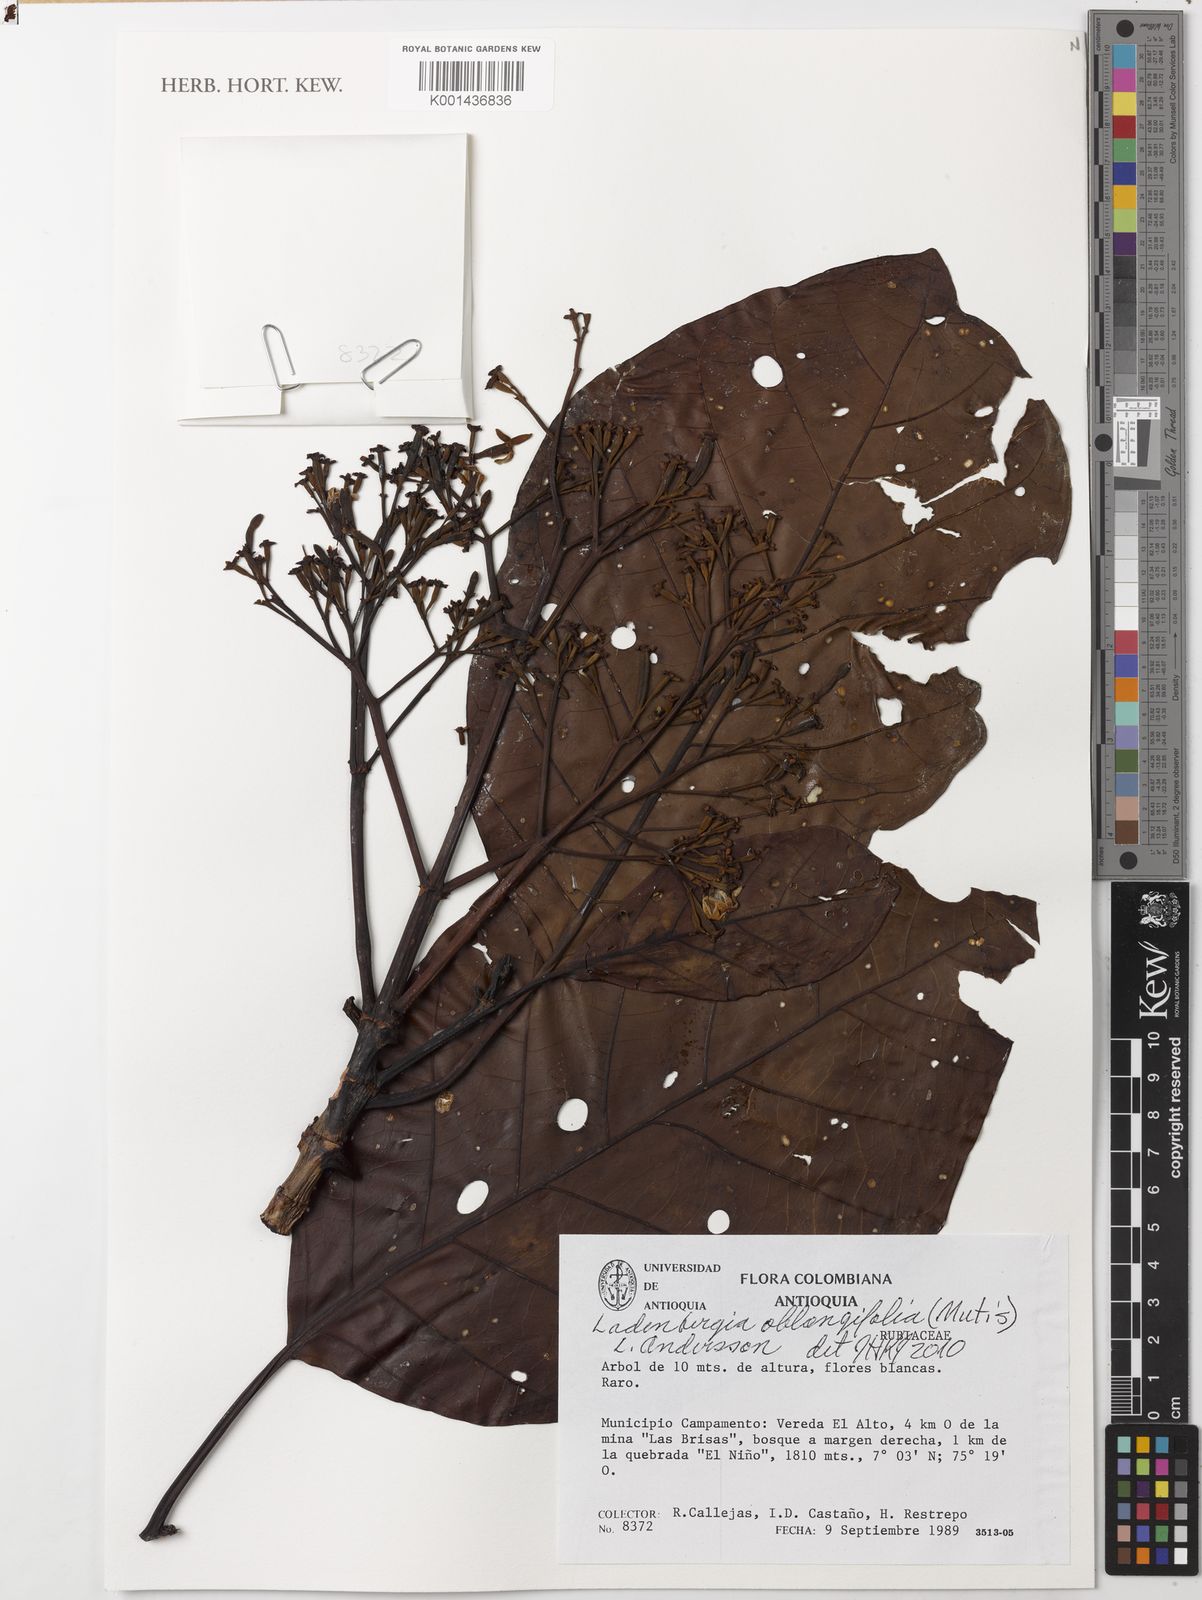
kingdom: Plantae
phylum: Tracheophyta
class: Magnoliopsida
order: Gentianales
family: Rubiaceae
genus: Ladenbergia
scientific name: Ladenbergia oblongifolia
